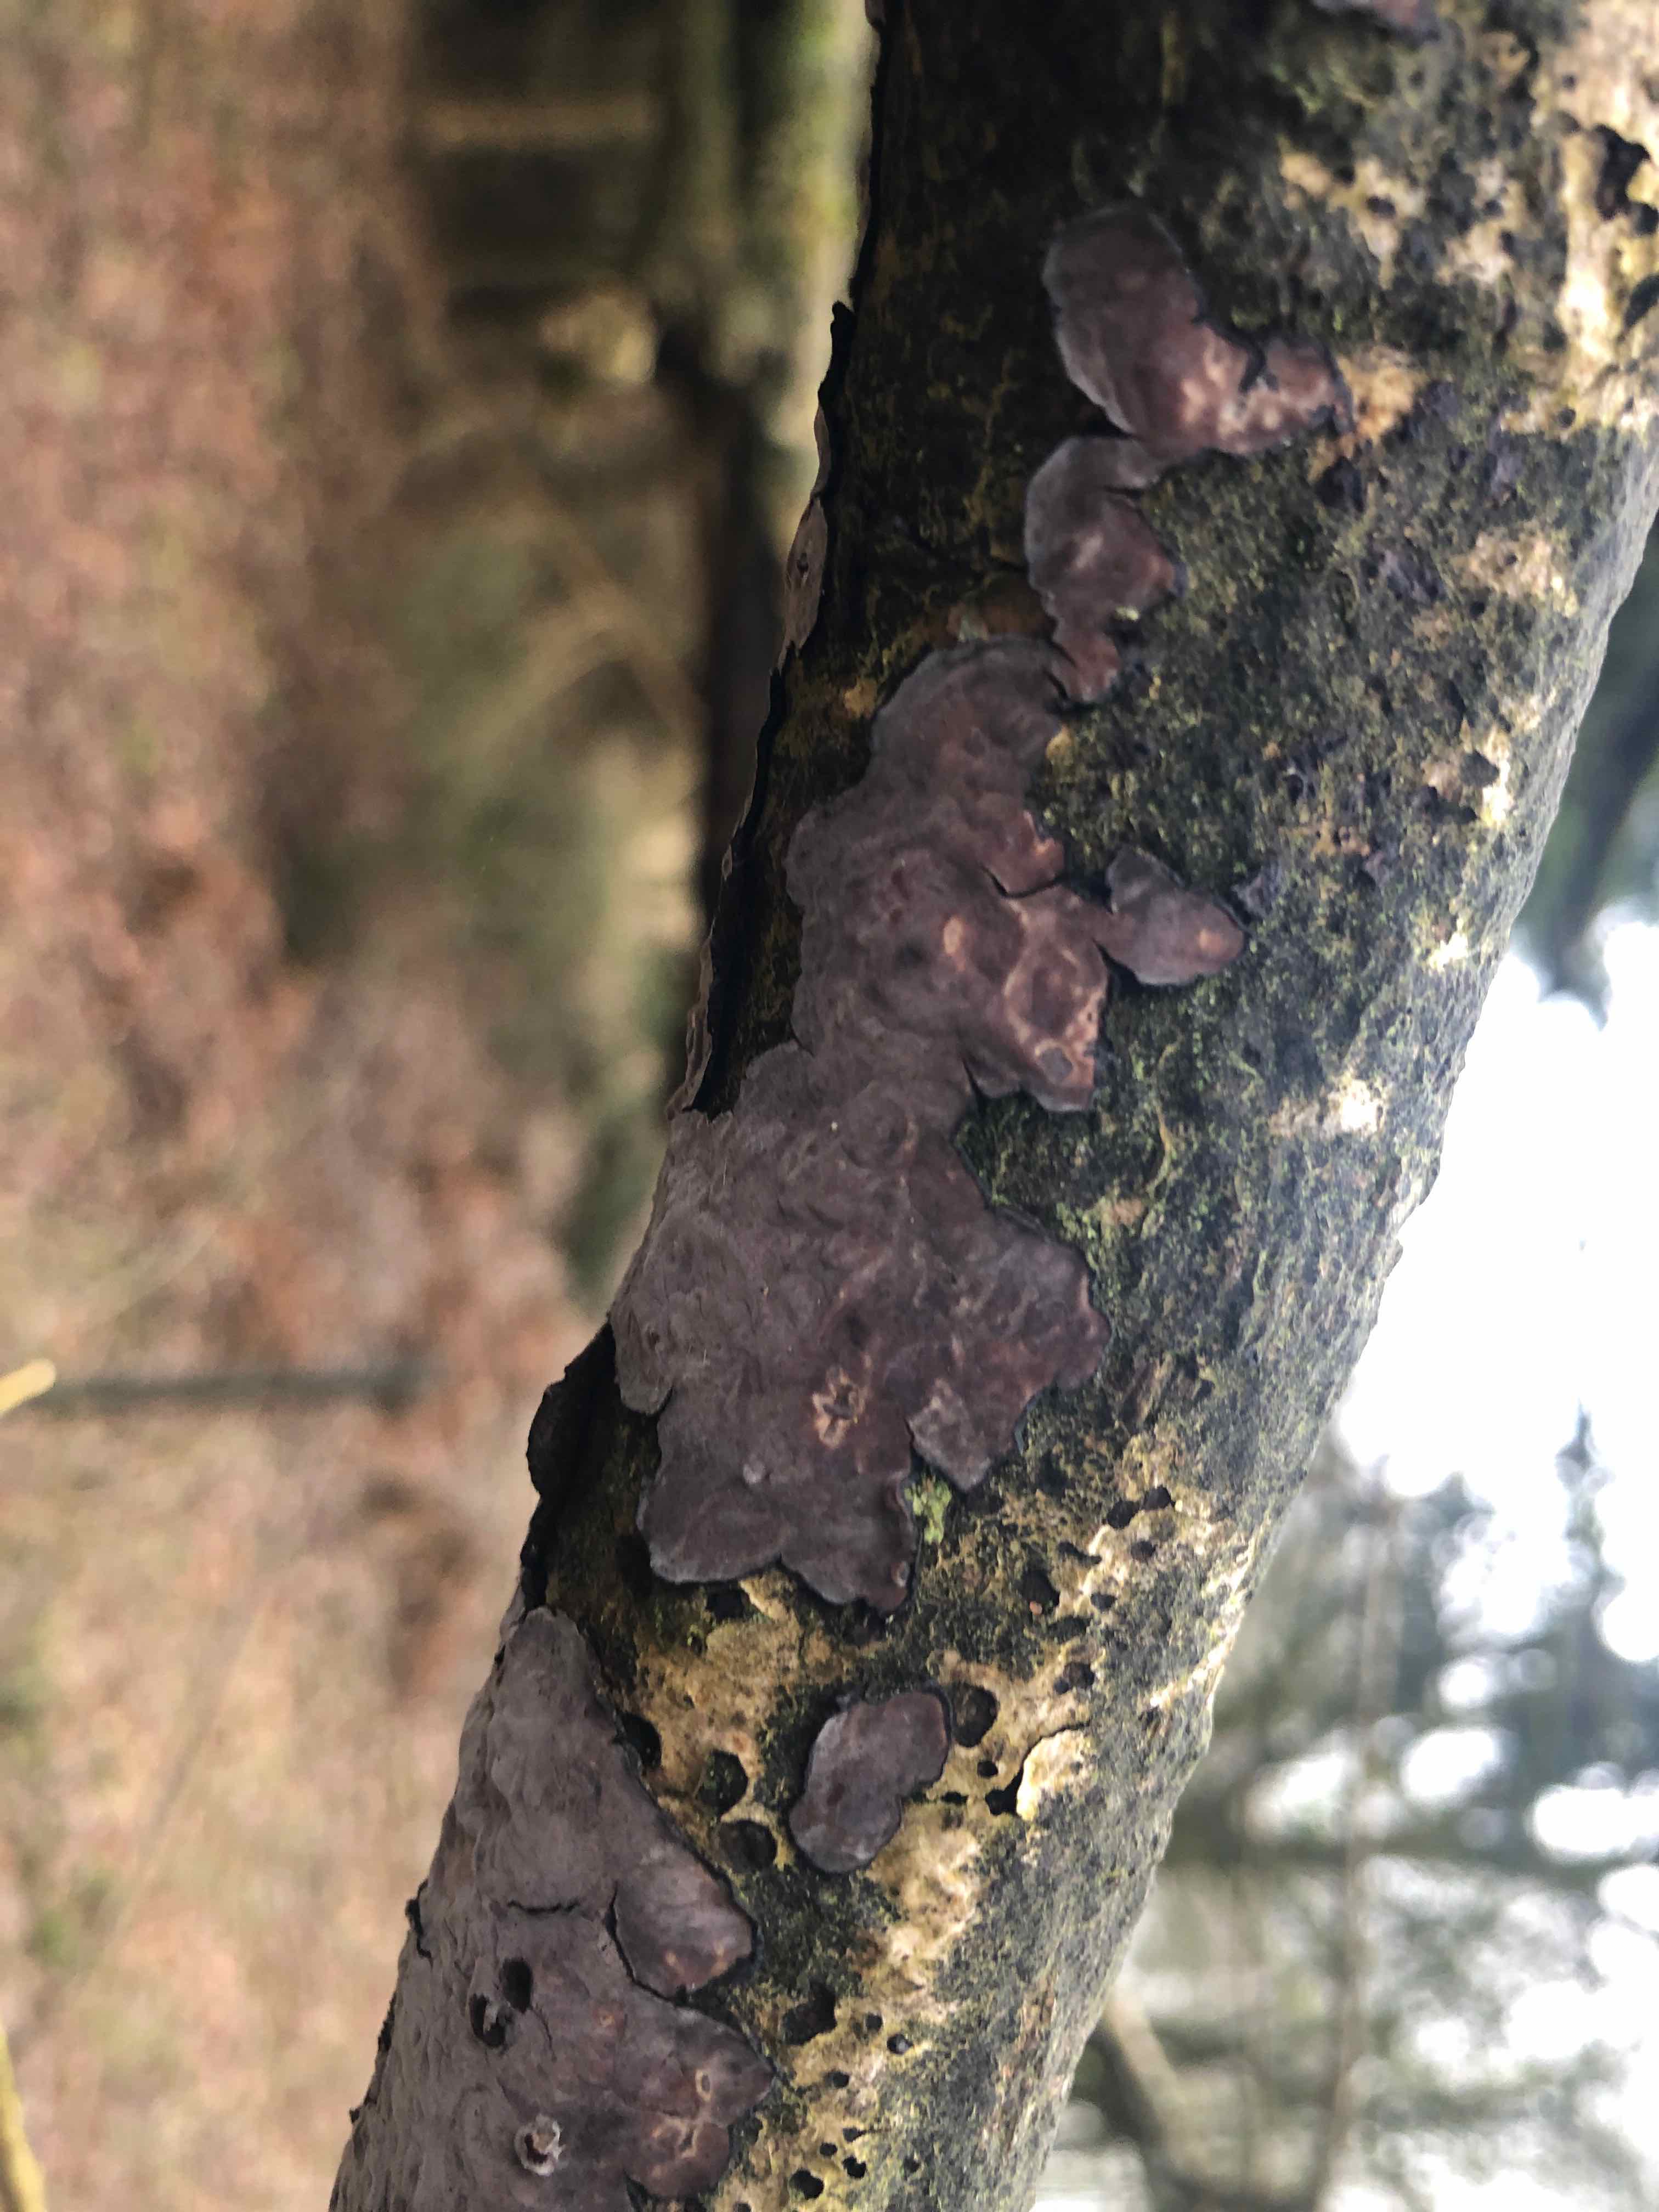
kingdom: Fungi
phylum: Basidiomycota
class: Agaricomycetes
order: Russulales
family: Peniophoraceae
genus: Peniophora
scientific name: Peniophora quercina
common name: ege-voksskind
